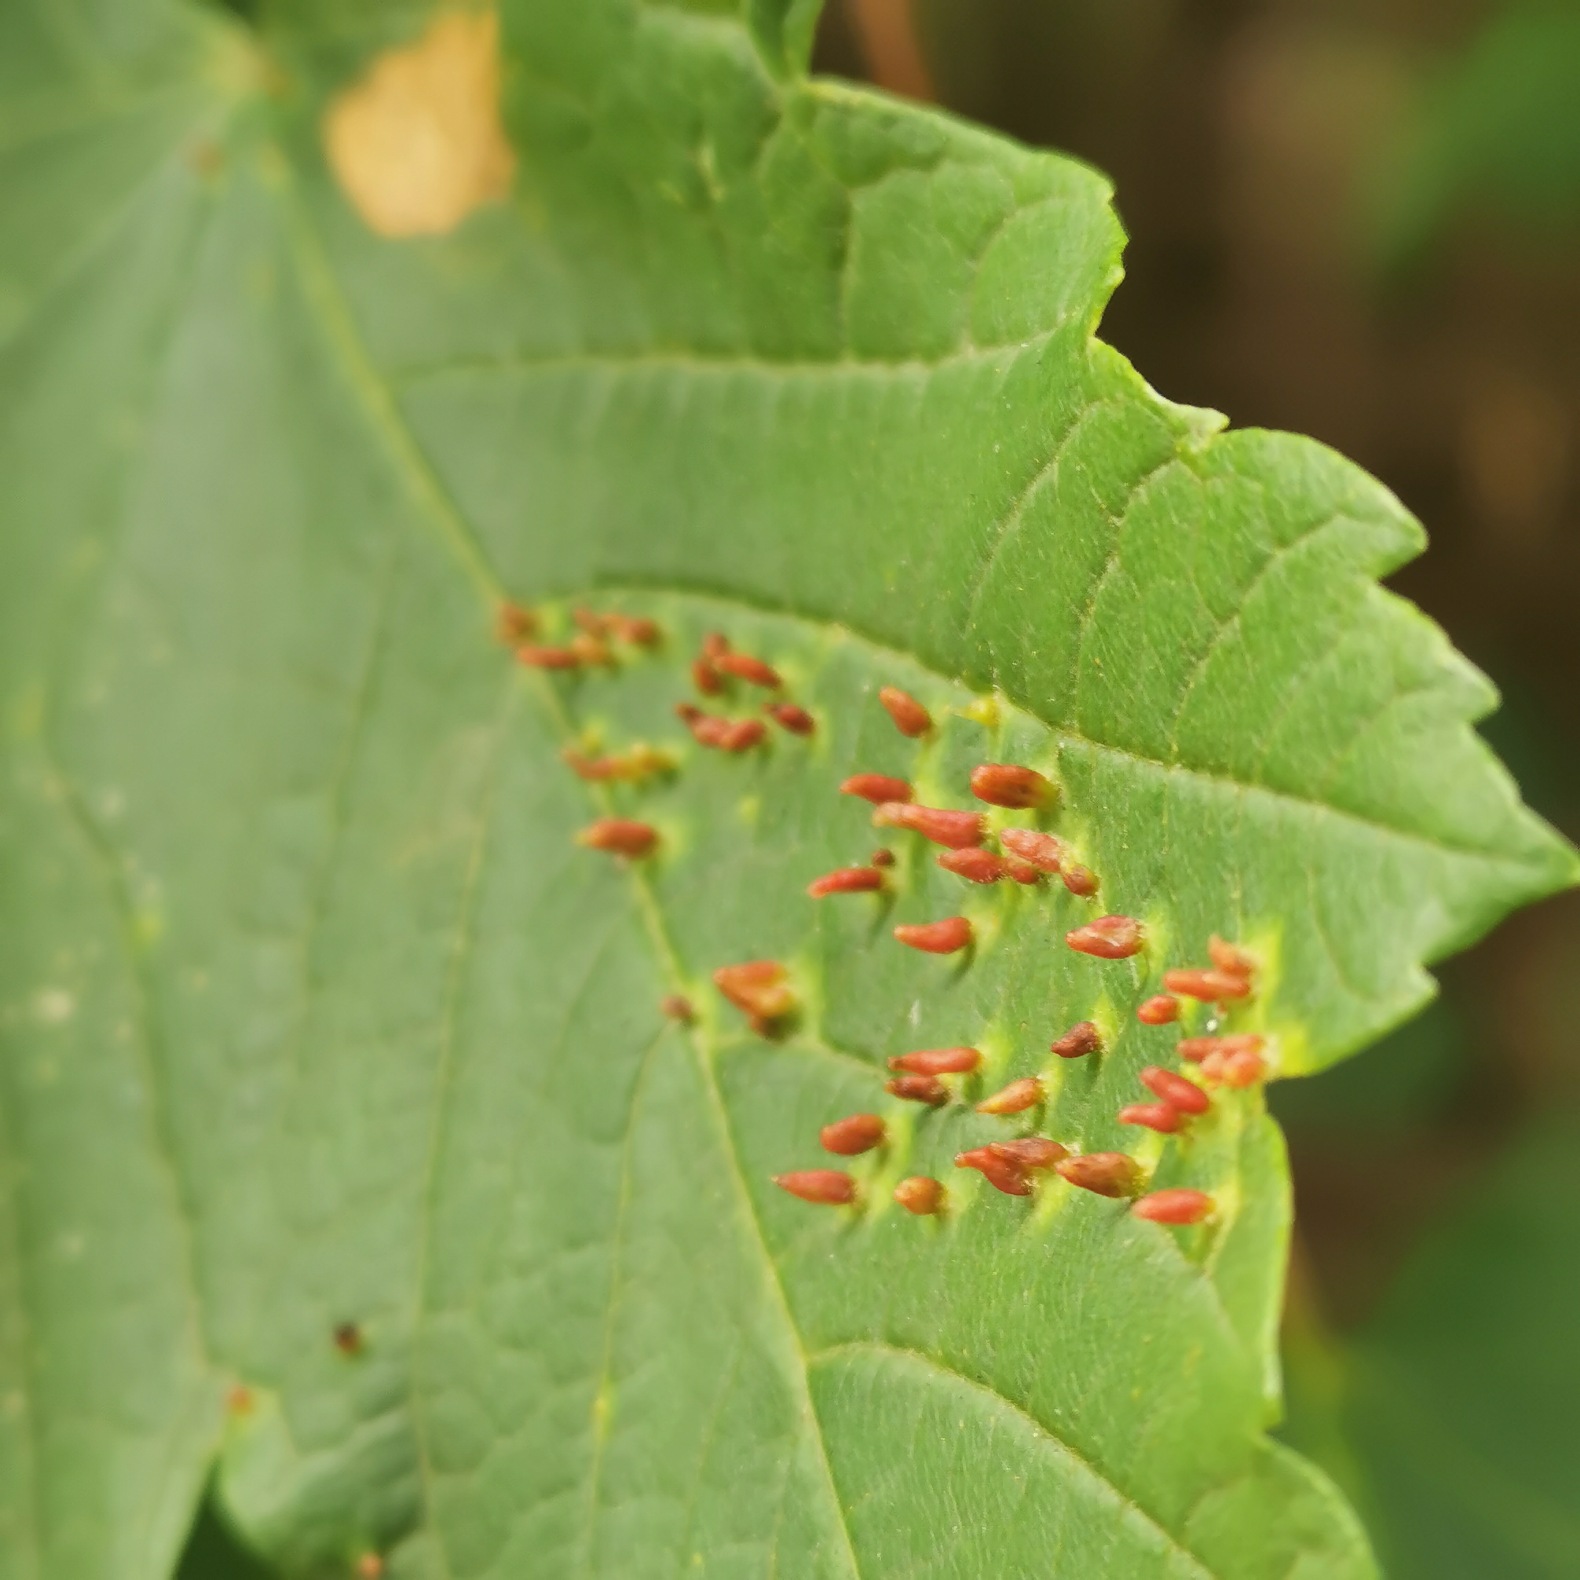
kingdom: Animalia
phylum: Arthropoda
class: Arachnida
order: Trombidiformes
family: Eriophyidae
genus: Aceria
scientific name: Aceria cephaloneus
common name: Ahornvortegalmide
